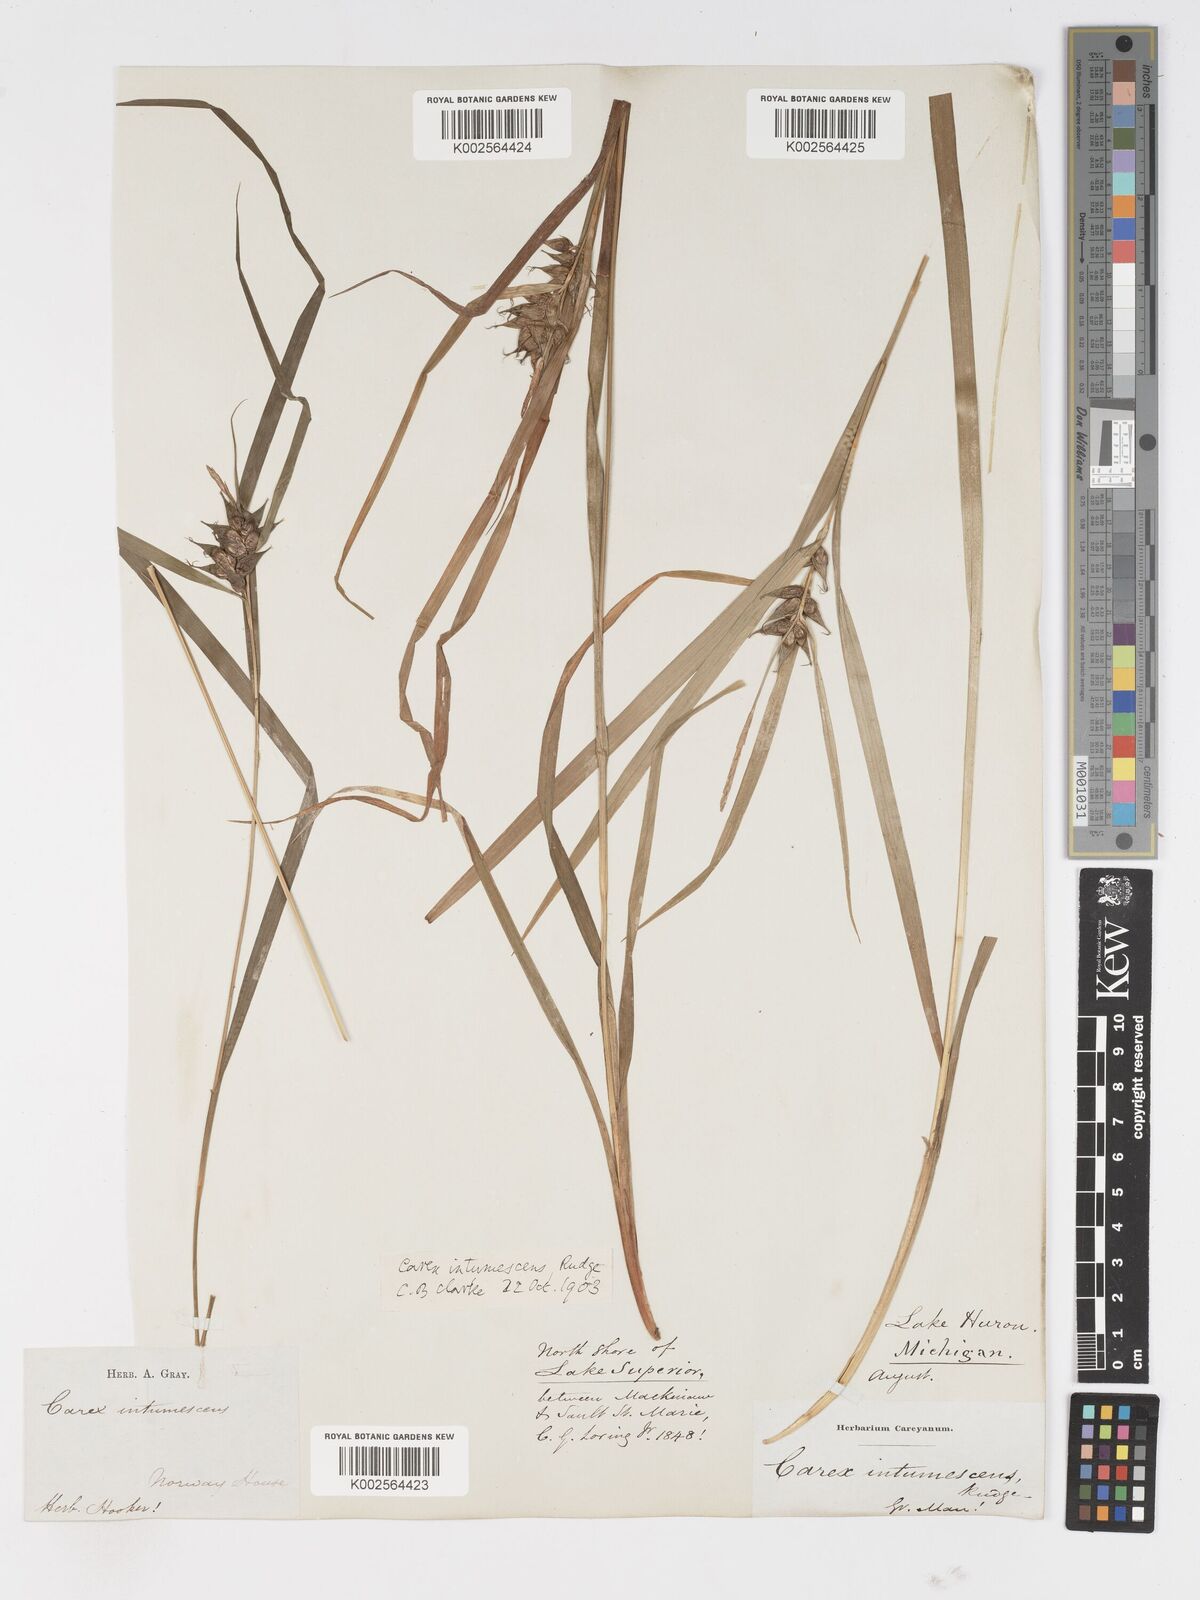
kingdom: Plantae
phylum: Tracheophyta
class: Liliopsida
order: Poales
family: Cyperaceae
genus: Carex
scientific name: Carex intumescens
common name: Greater bladder sedge
